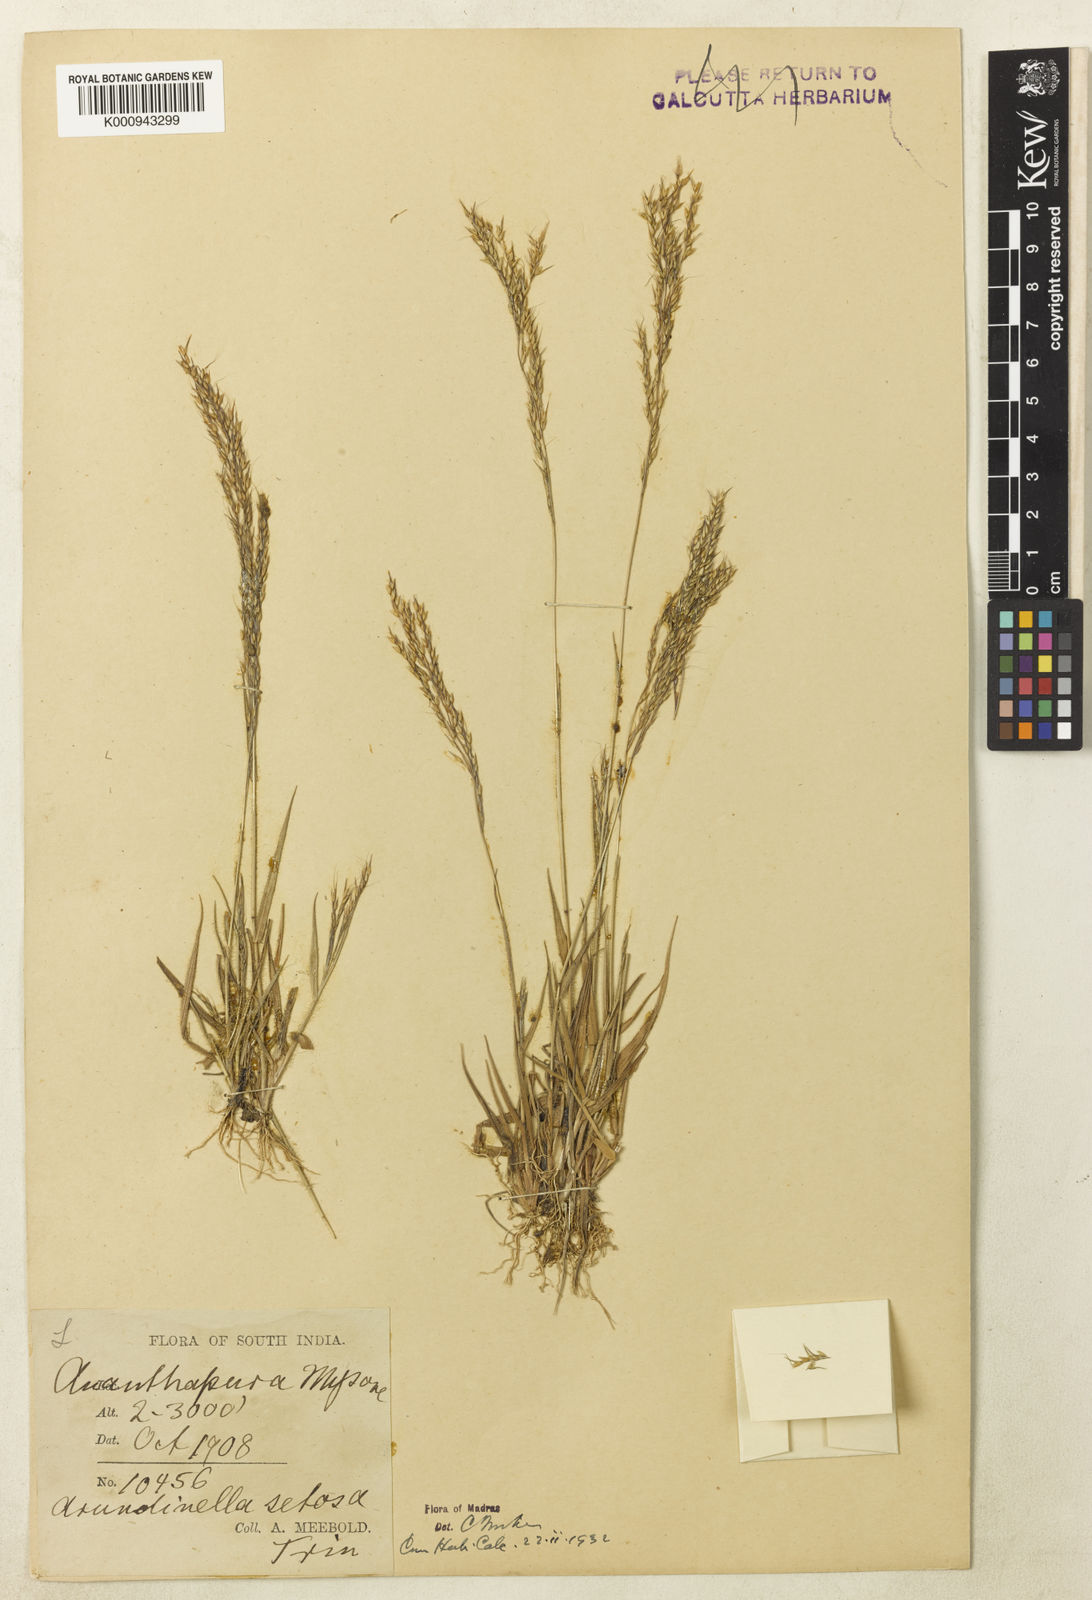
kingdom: Plantae
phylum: Tracheophyta
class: Liliopsida
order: Poales
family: Poaceae
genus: Arundinella
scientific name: Arundinella nervosa
